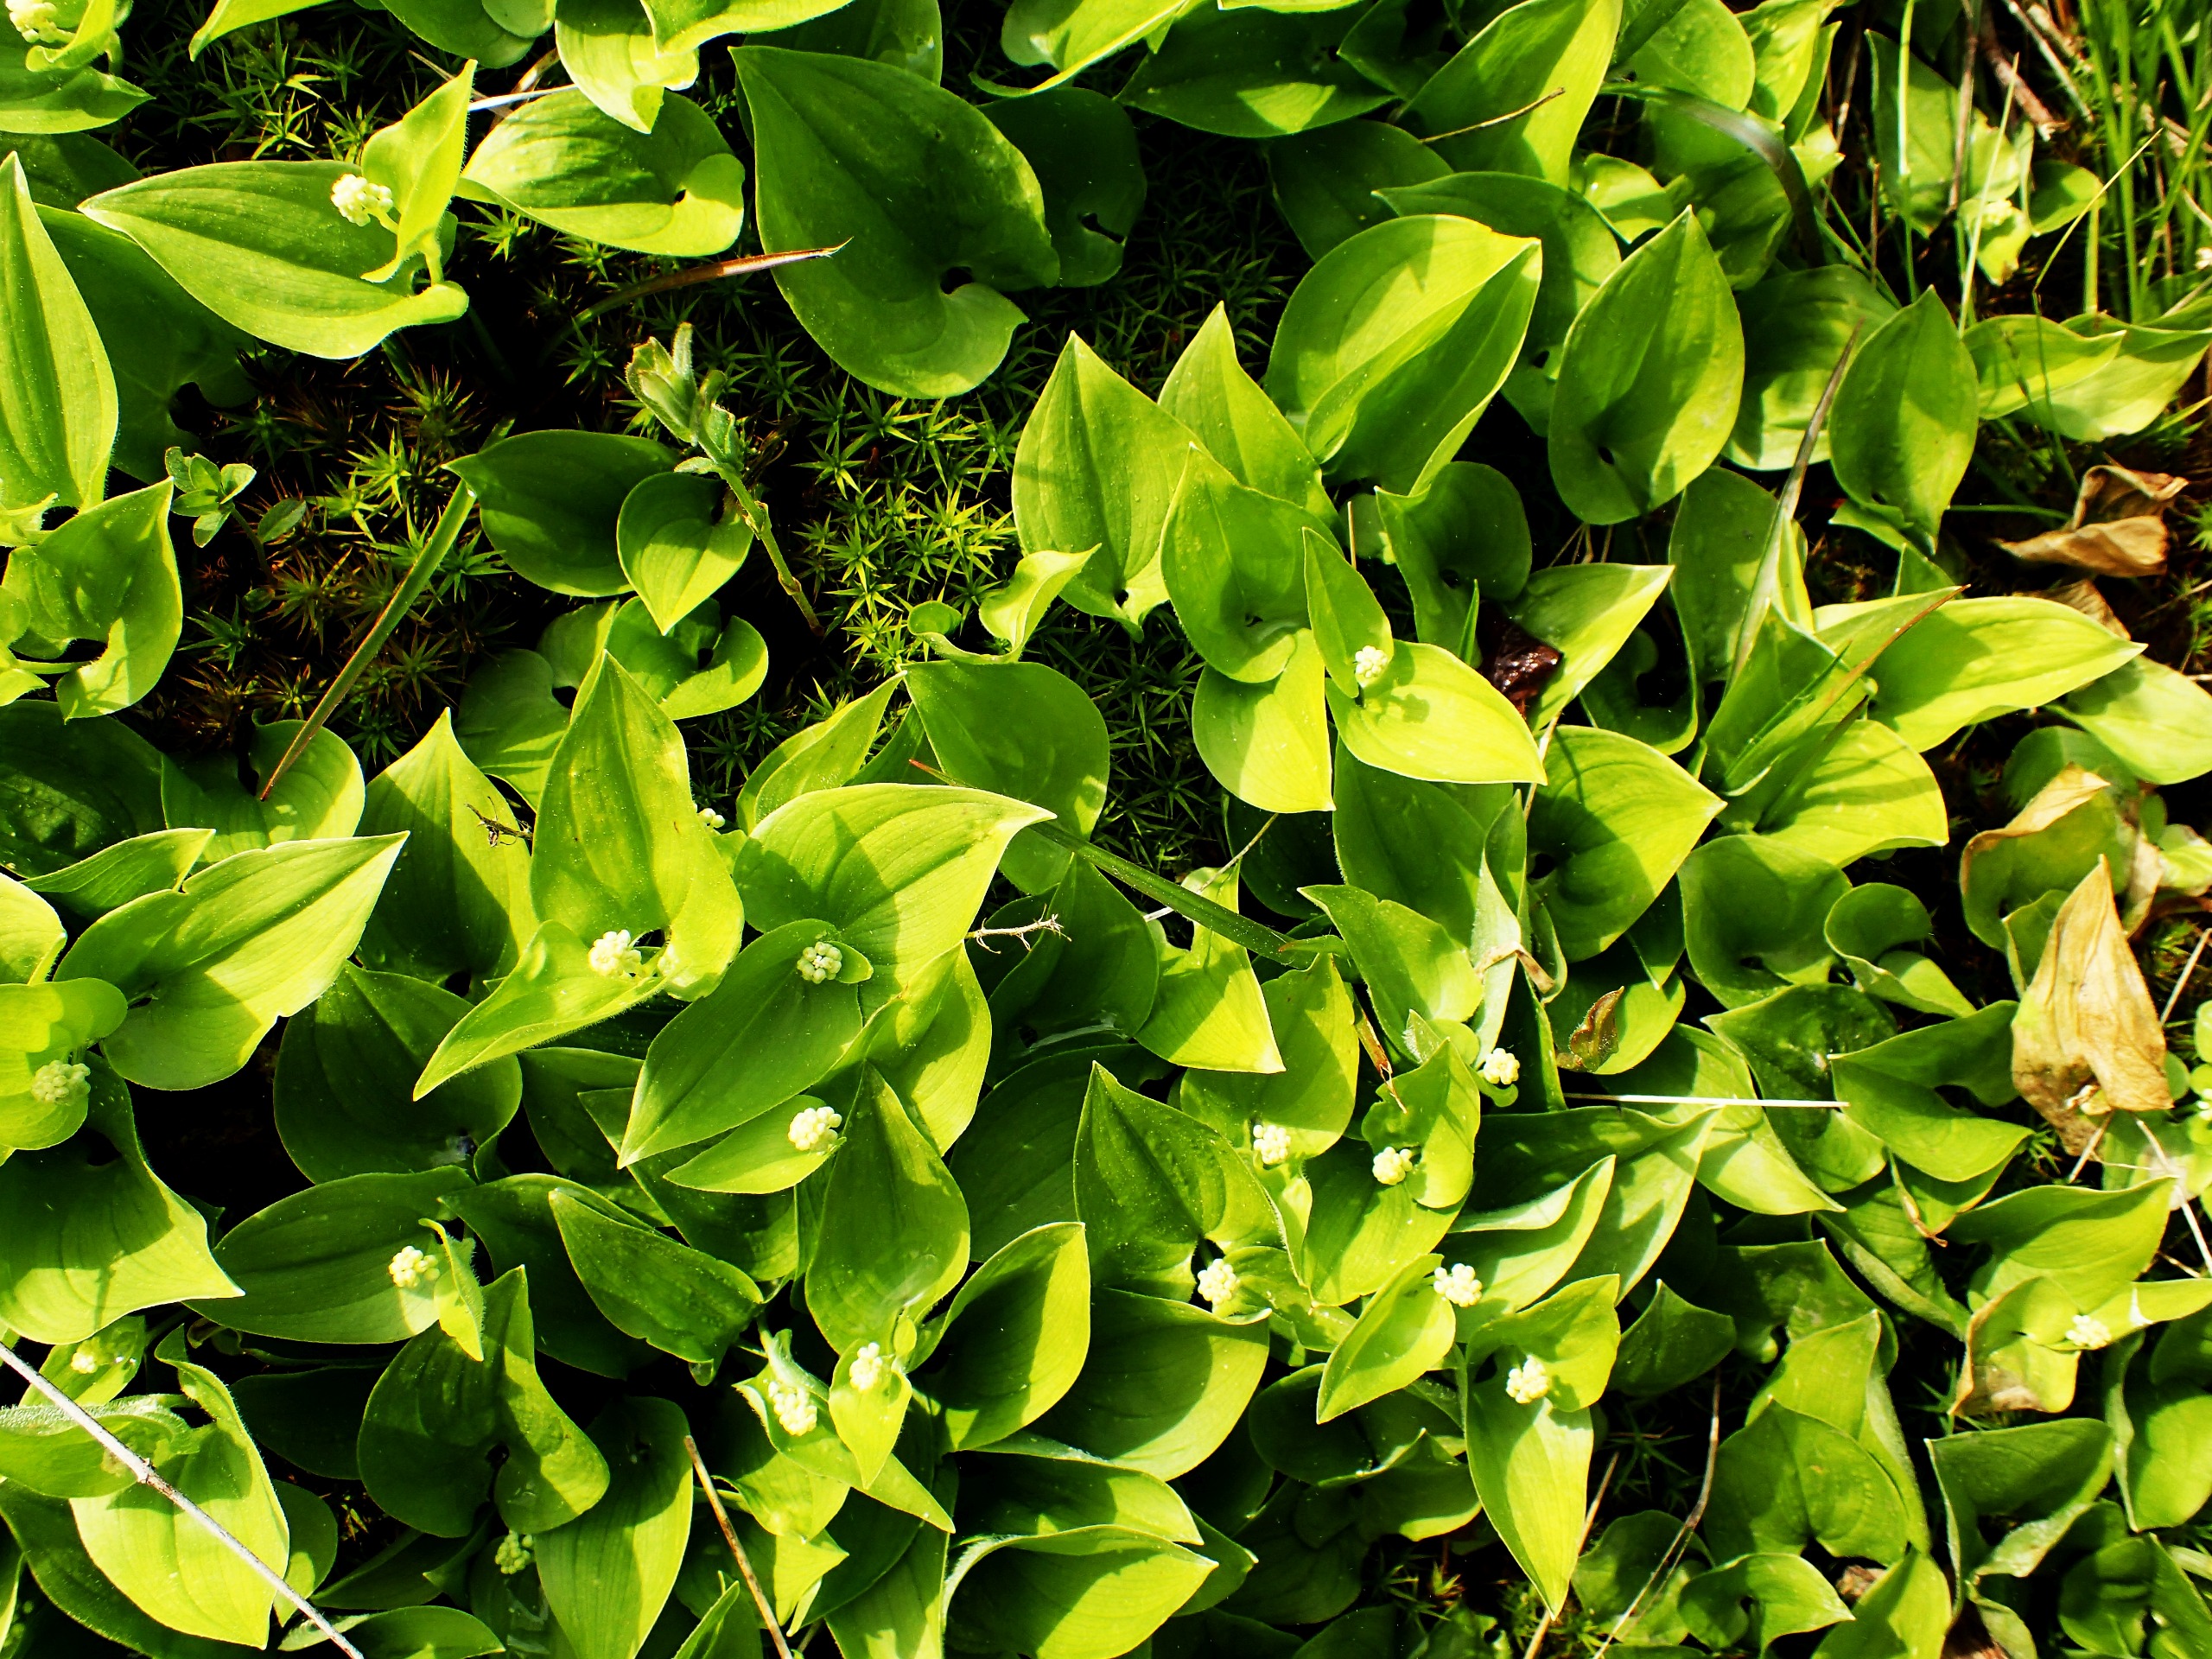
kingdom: Plantae
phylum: Tracheophyta
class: Liliopsida
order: Asparagales
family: Asparagaceae
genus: Maianthemum
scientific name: Maianthemum bifolium
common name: Majblomst
